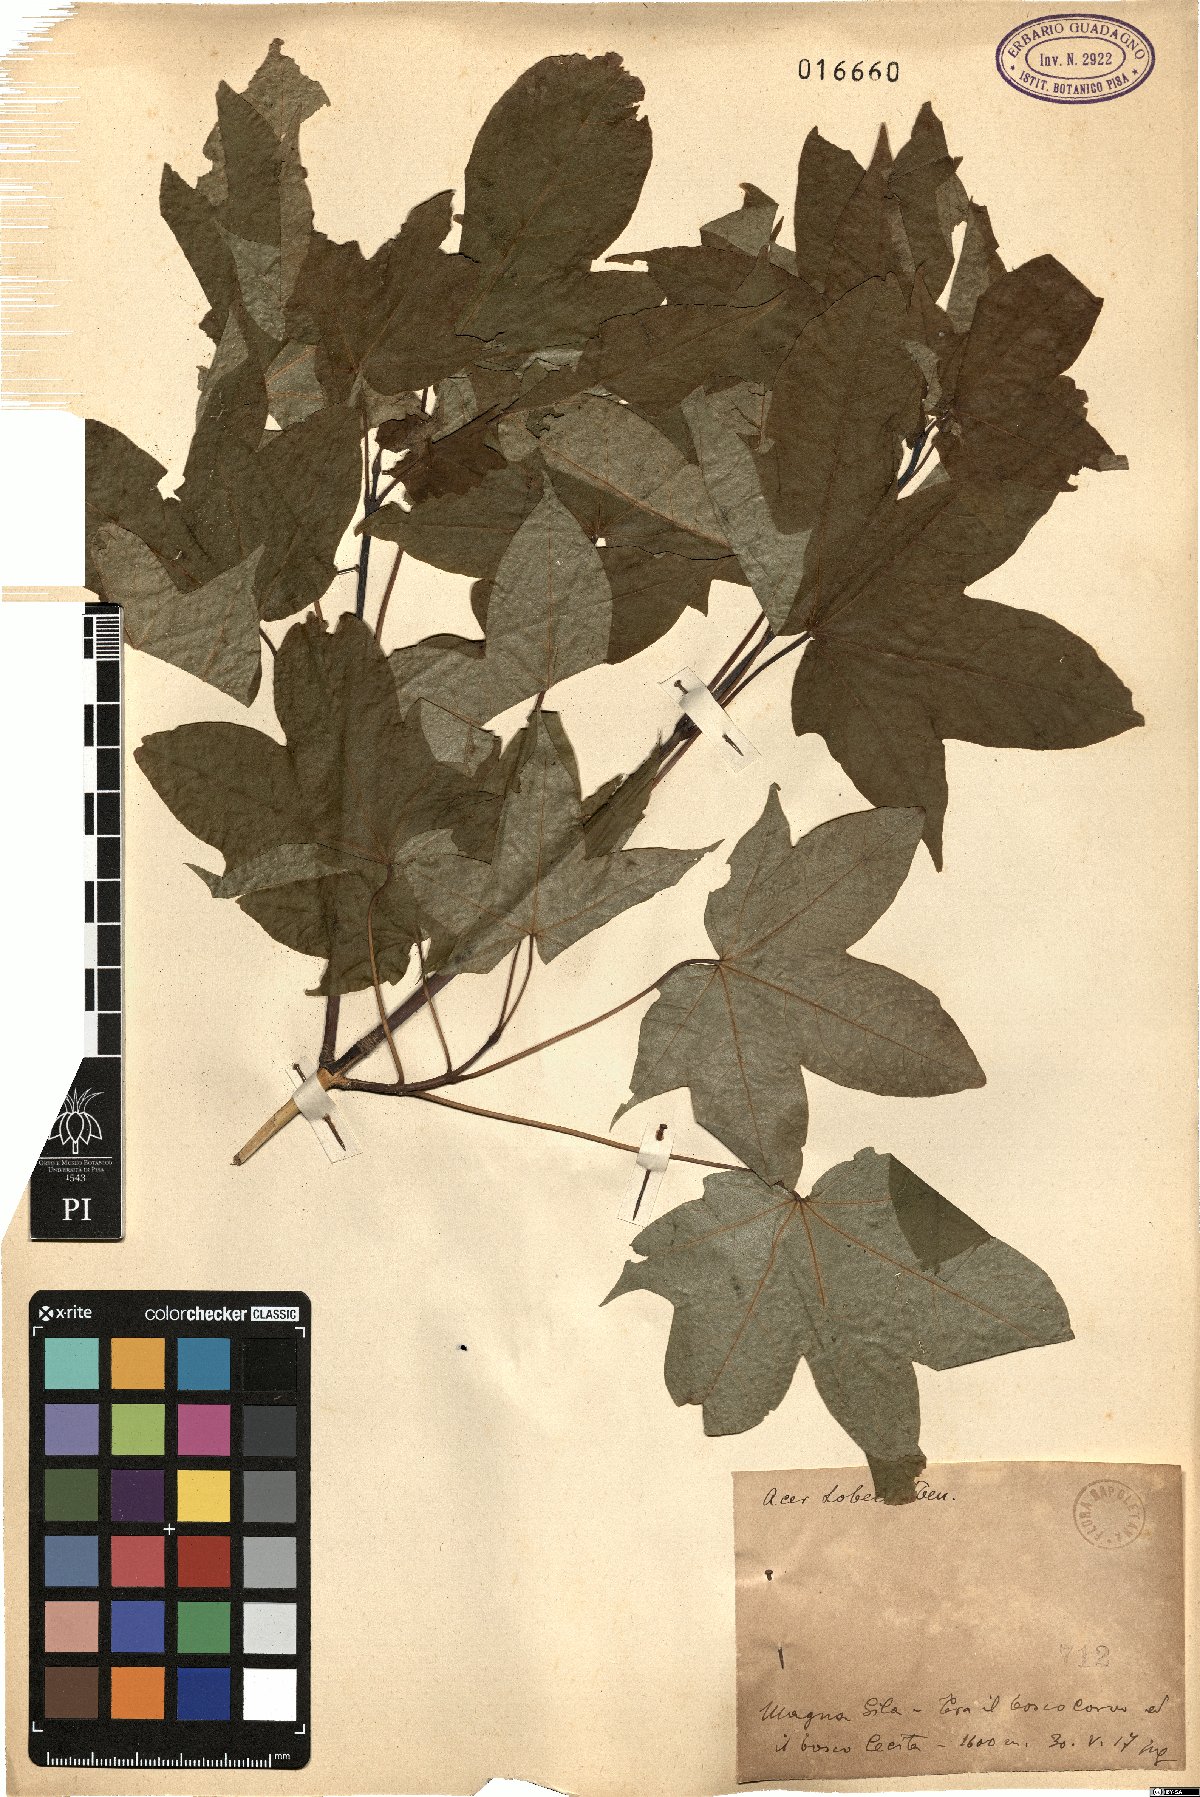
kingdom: Plantae
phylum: Tracheophyta
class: Magnoliopsida
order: Sapindales
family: Sapindaceae
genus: Acer
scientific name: Acer lobelii
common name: Lobel's maple
